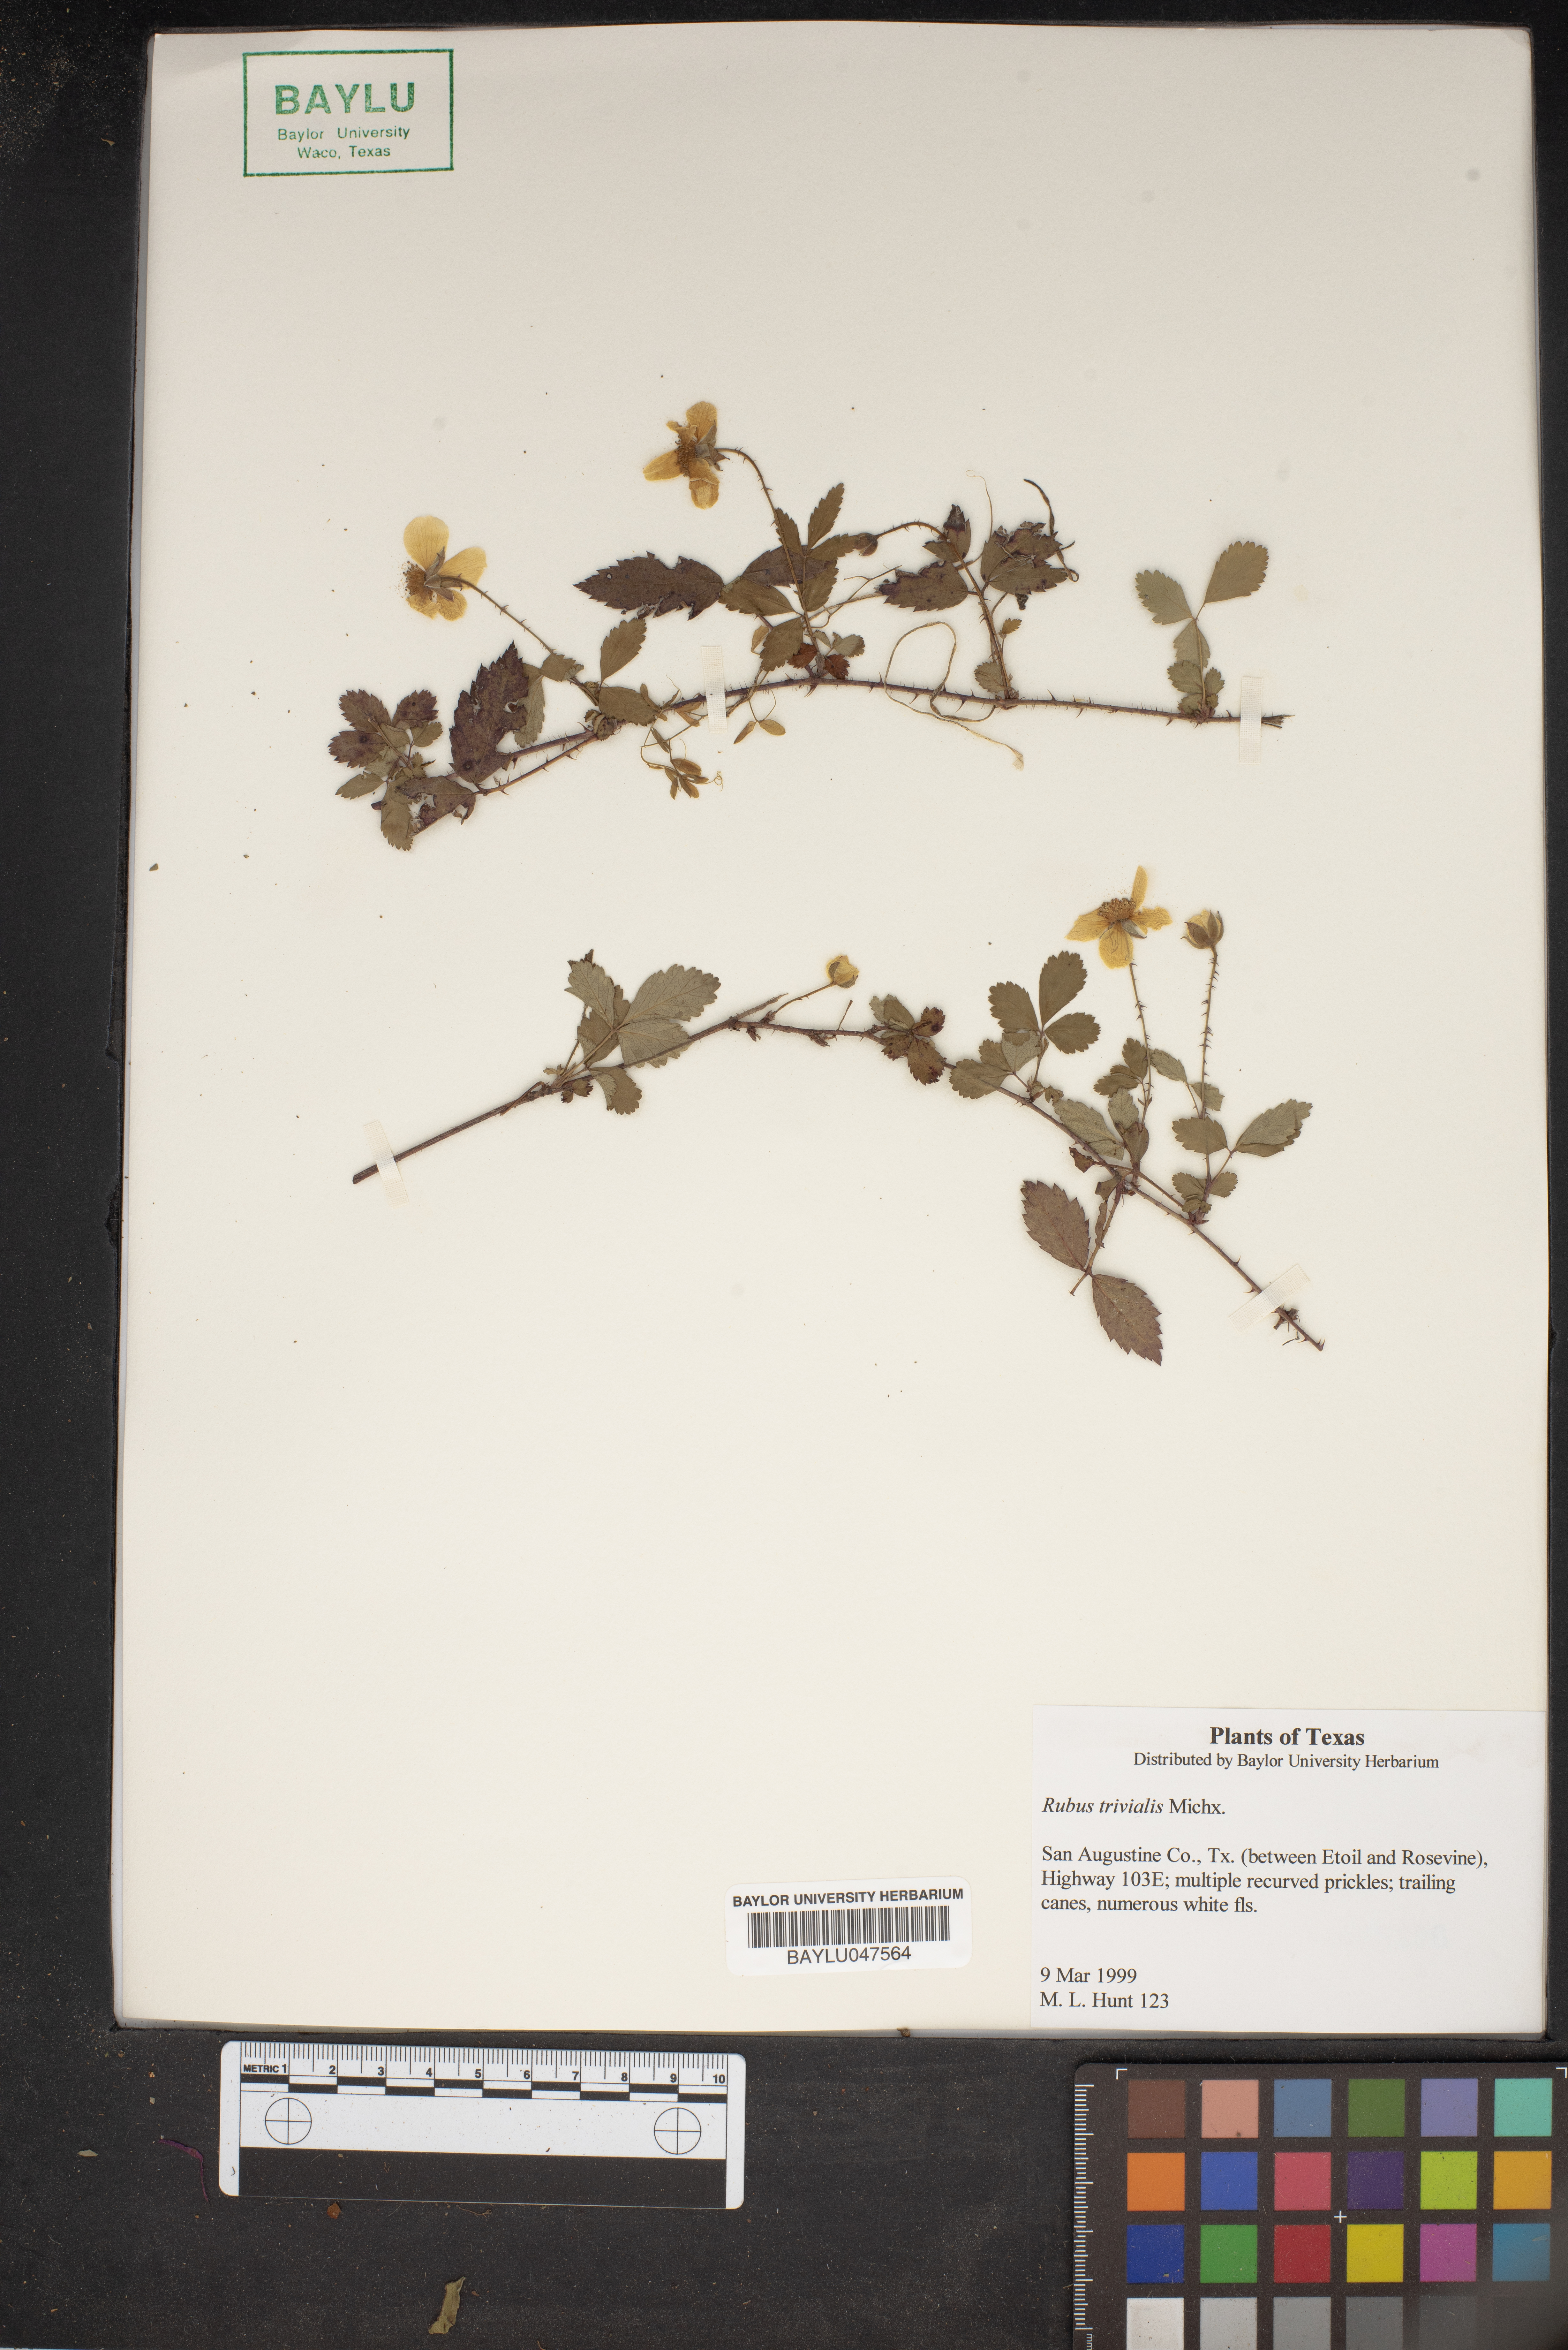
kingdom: Plantae
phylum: Tracheophyta
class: Magnoliopsida
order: Rosales
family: Rosaceae
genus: Rubus
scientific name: Rubus trivialis
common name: Southern dewberry
